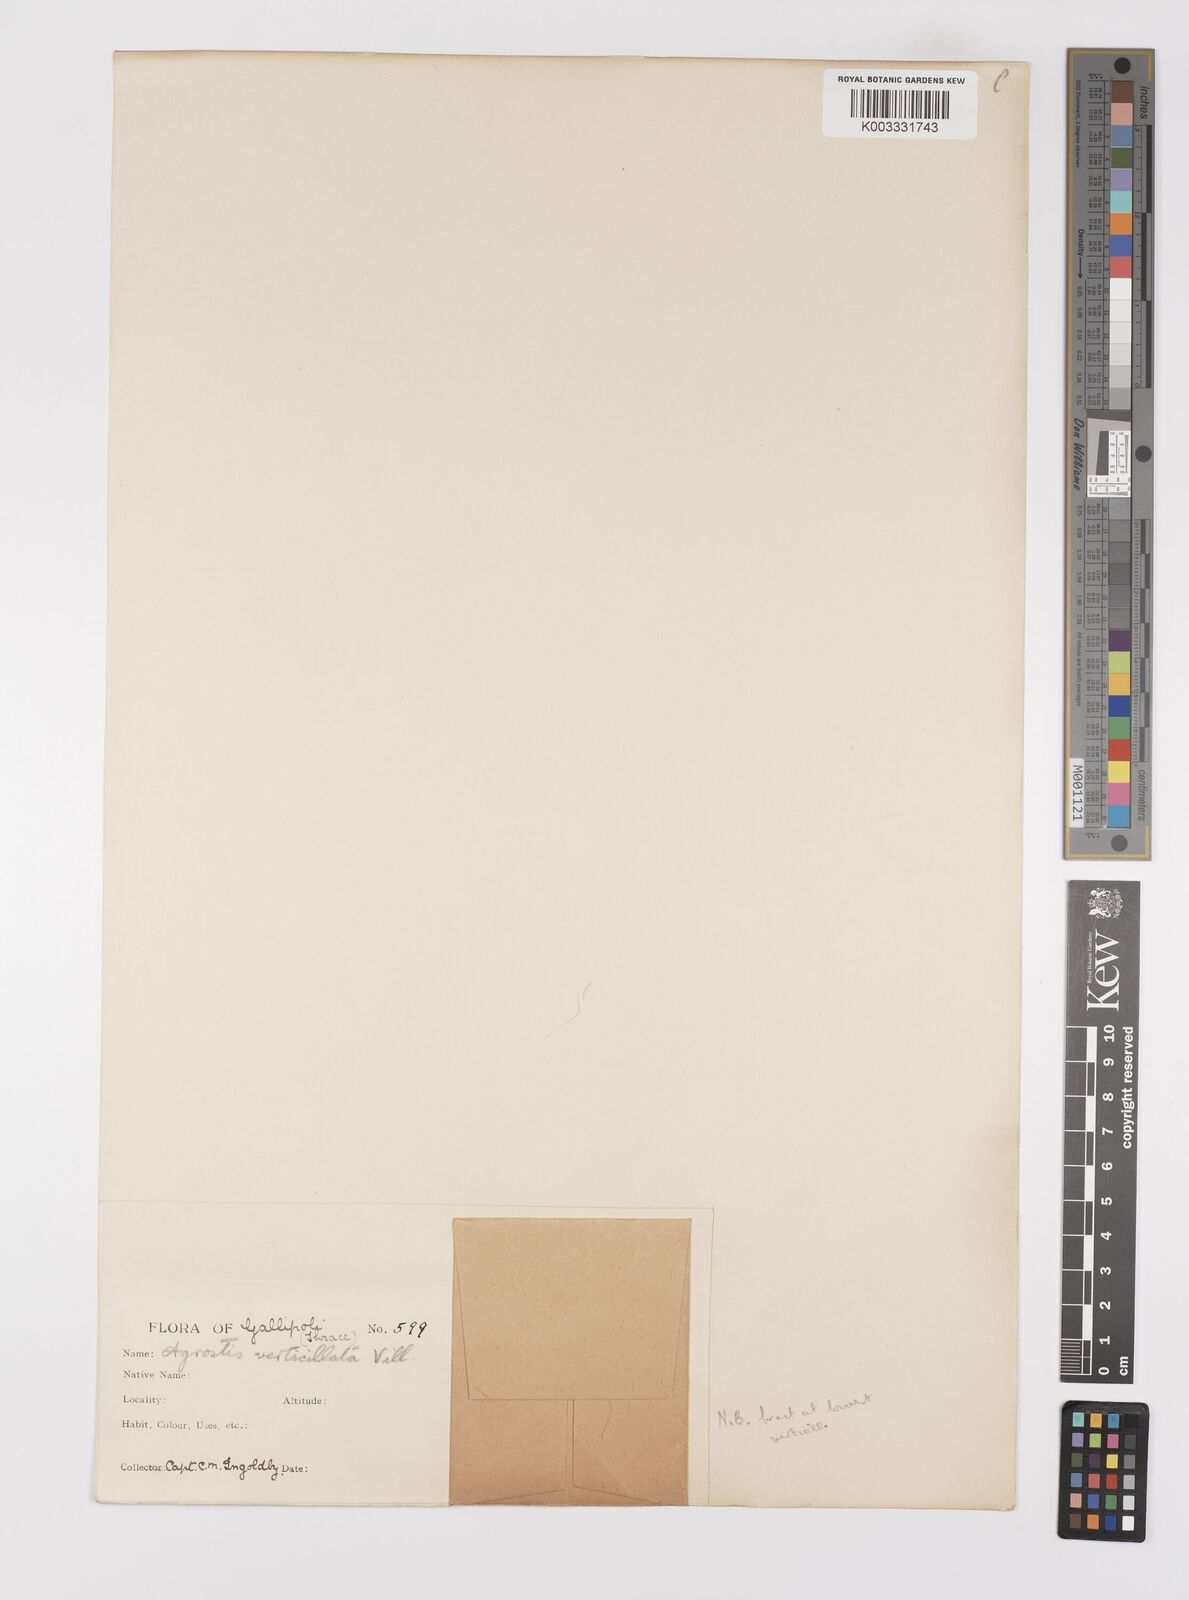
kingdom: Plantae
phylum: Tracheophyta
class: Liliopsida
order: Poales
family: Poaceae
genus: Polypogon
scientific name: Polypogon viridis
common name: Water bent
